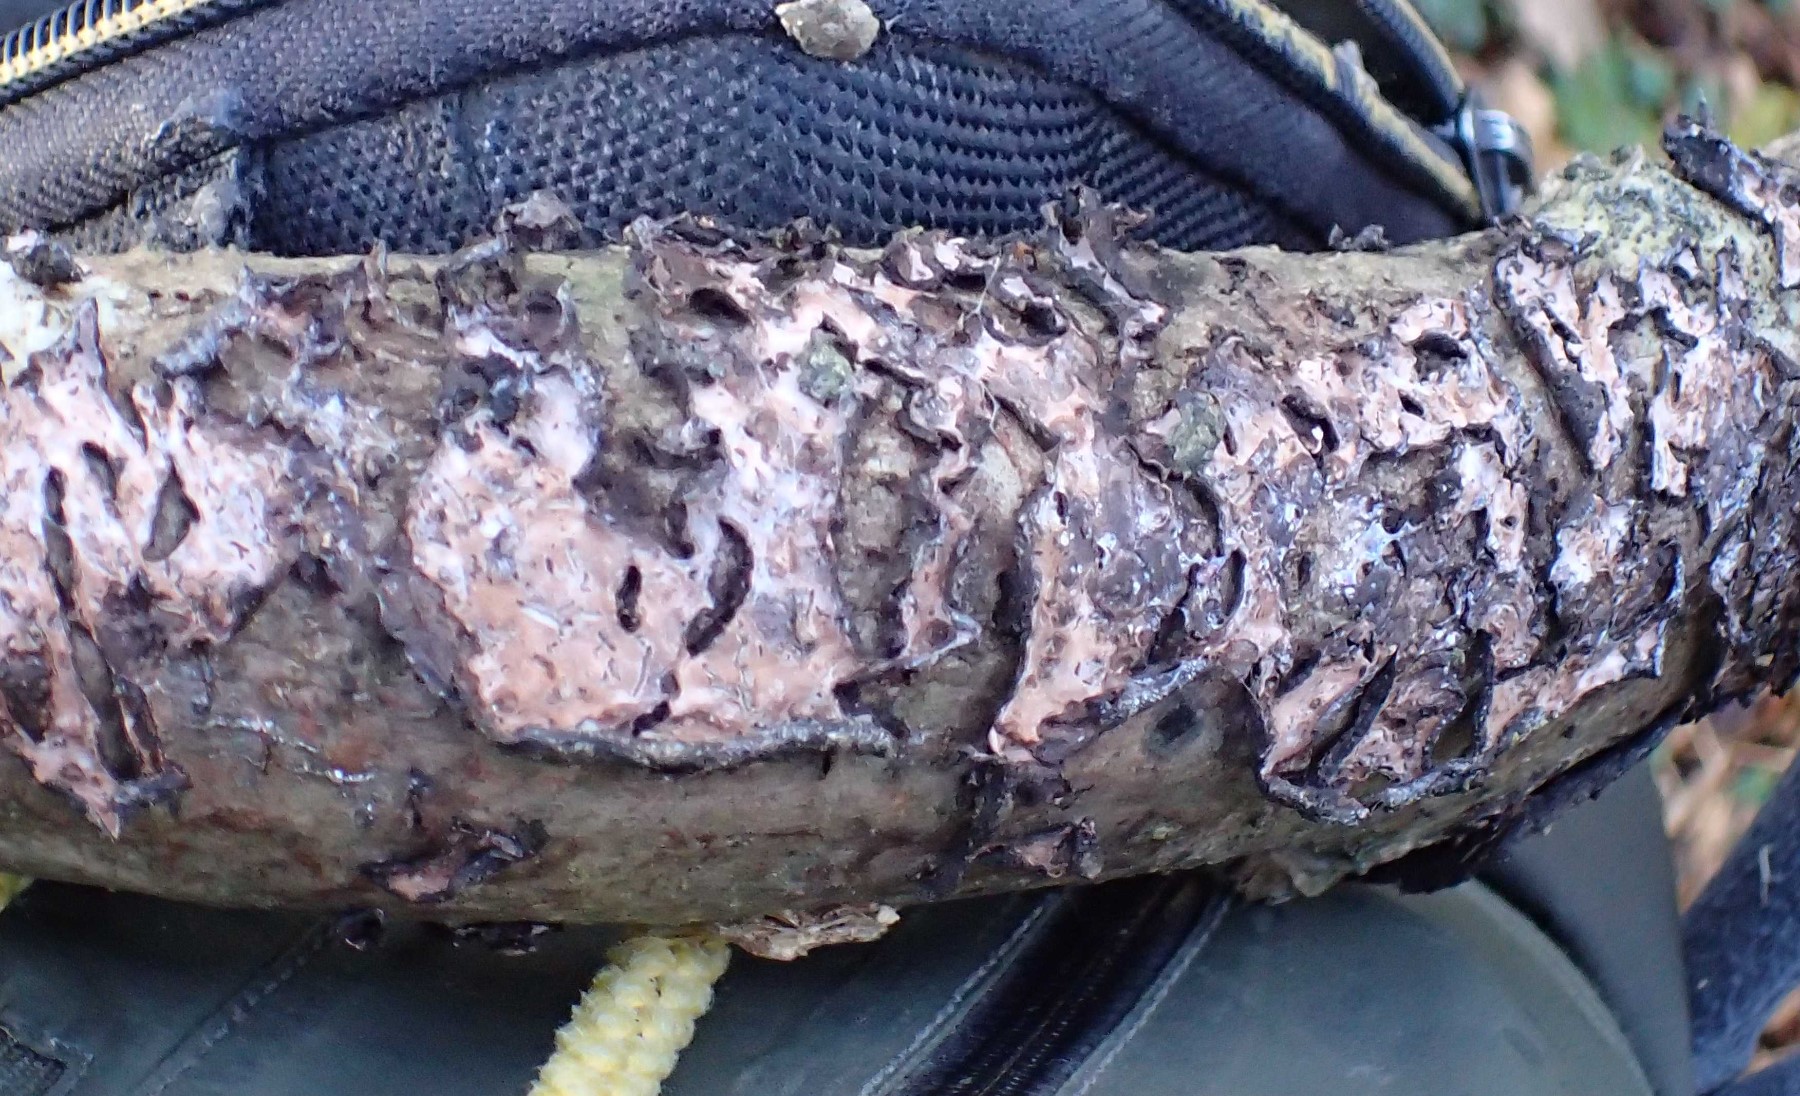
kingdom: Fungi
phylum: Basidiomycota
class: Agaricomycetes
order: Russulales
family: Peniophoraceae
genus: Peniophora
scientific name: Peniophora quercina
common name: ege-voksskind
